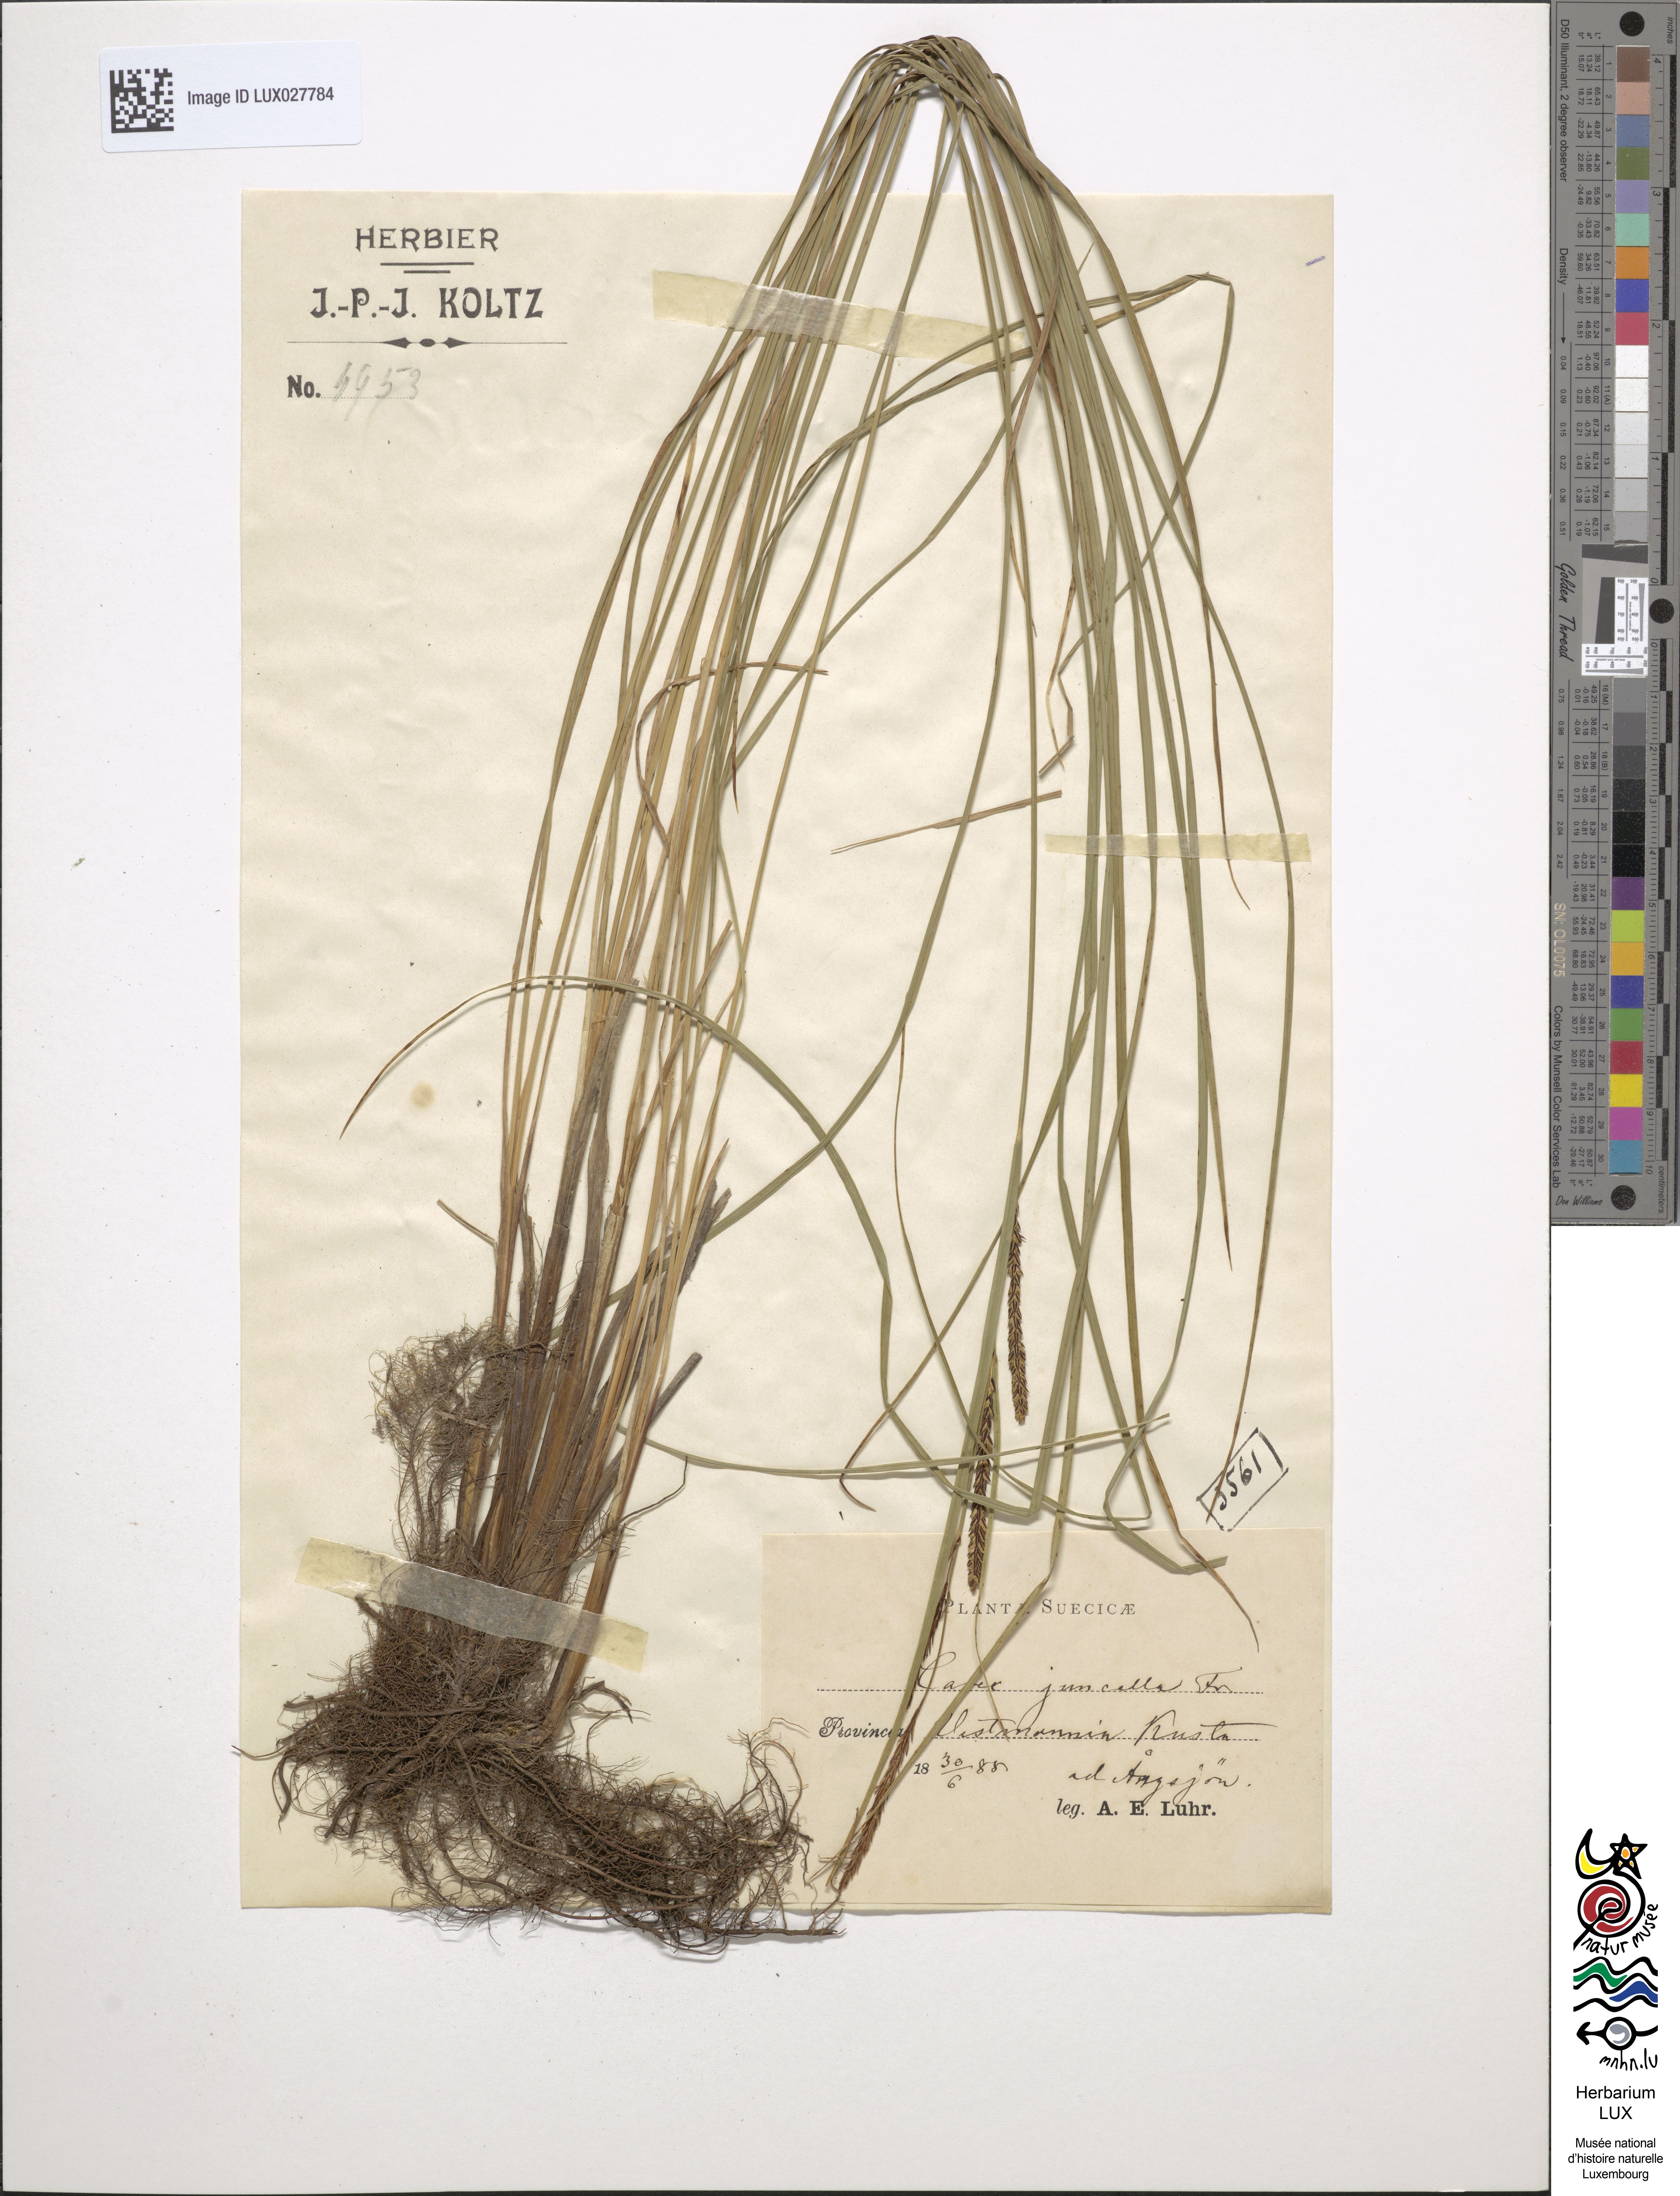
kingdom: Plantae
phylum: Tracheophyta
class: Liliopsida
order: Poales
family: Cyperaceae
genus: Carex
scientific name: Carex nigra
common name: Common sedge
